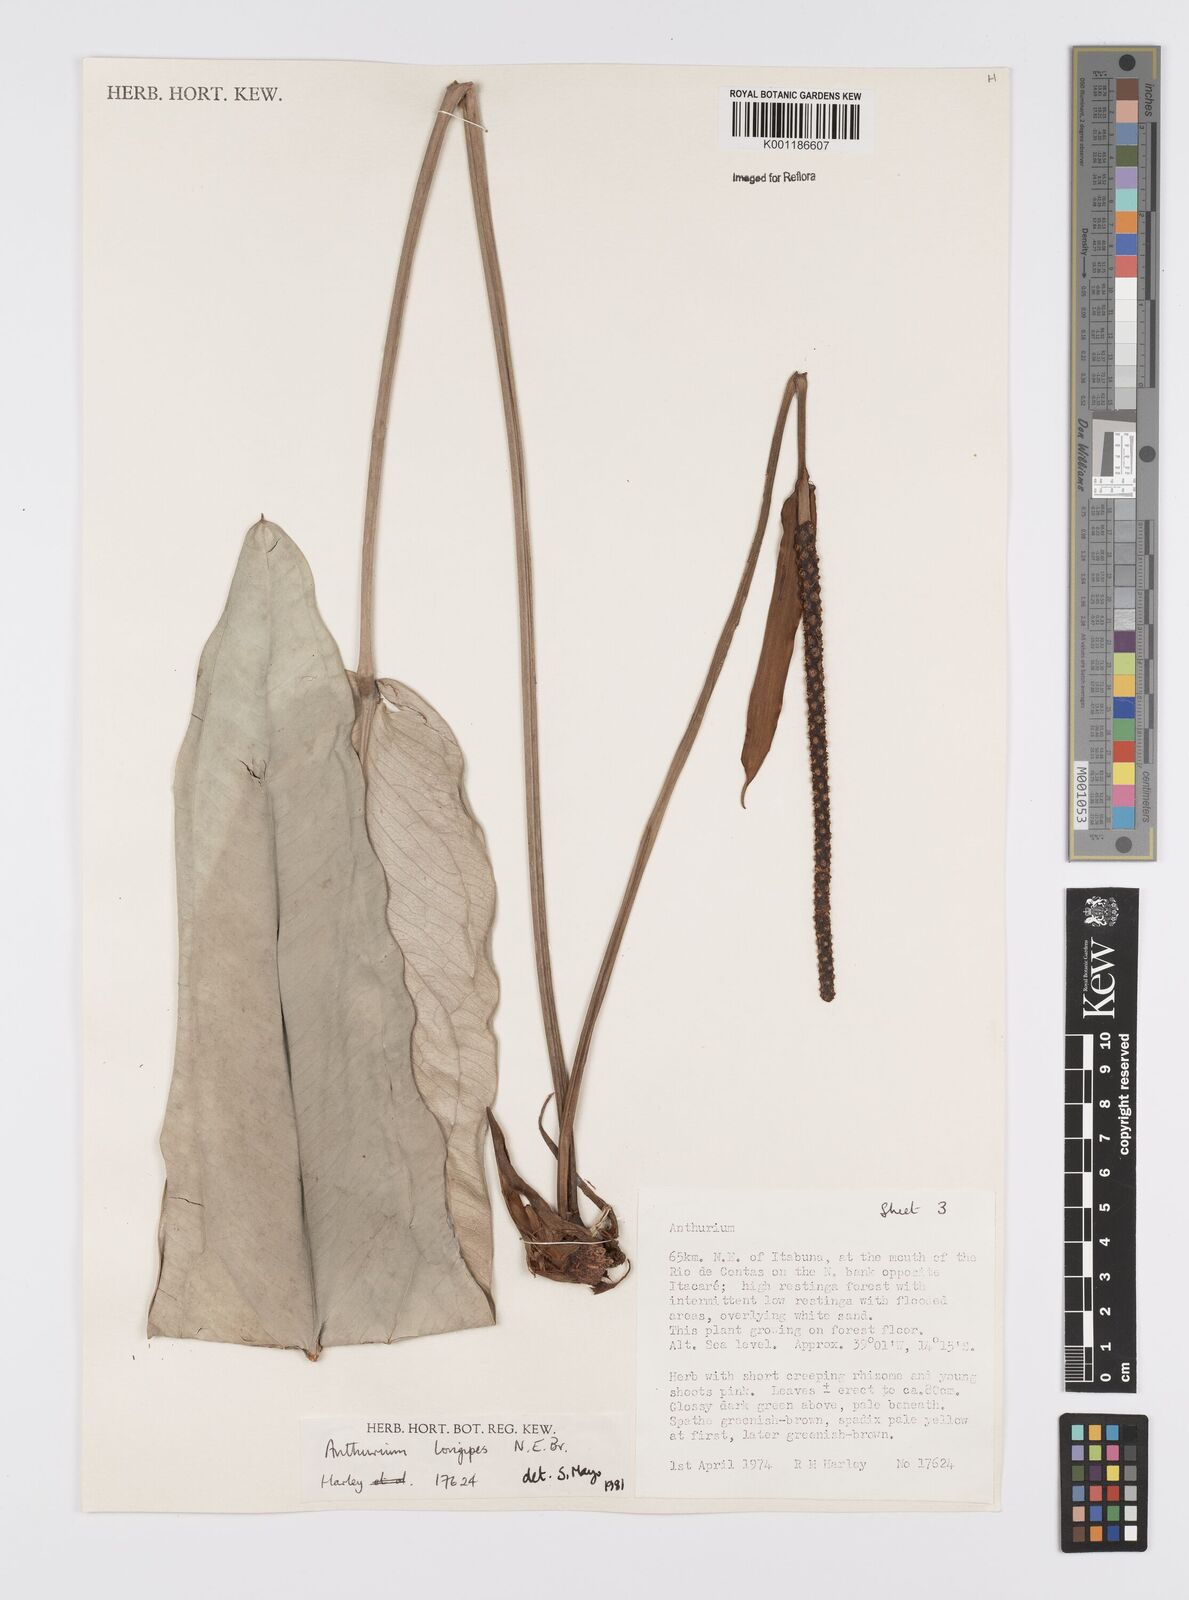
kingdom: Plantae
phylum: Tracheophyta
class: Liliopsida
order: Alismatales
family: Araceae
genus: Anthurium
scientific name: Anthurium longipes
